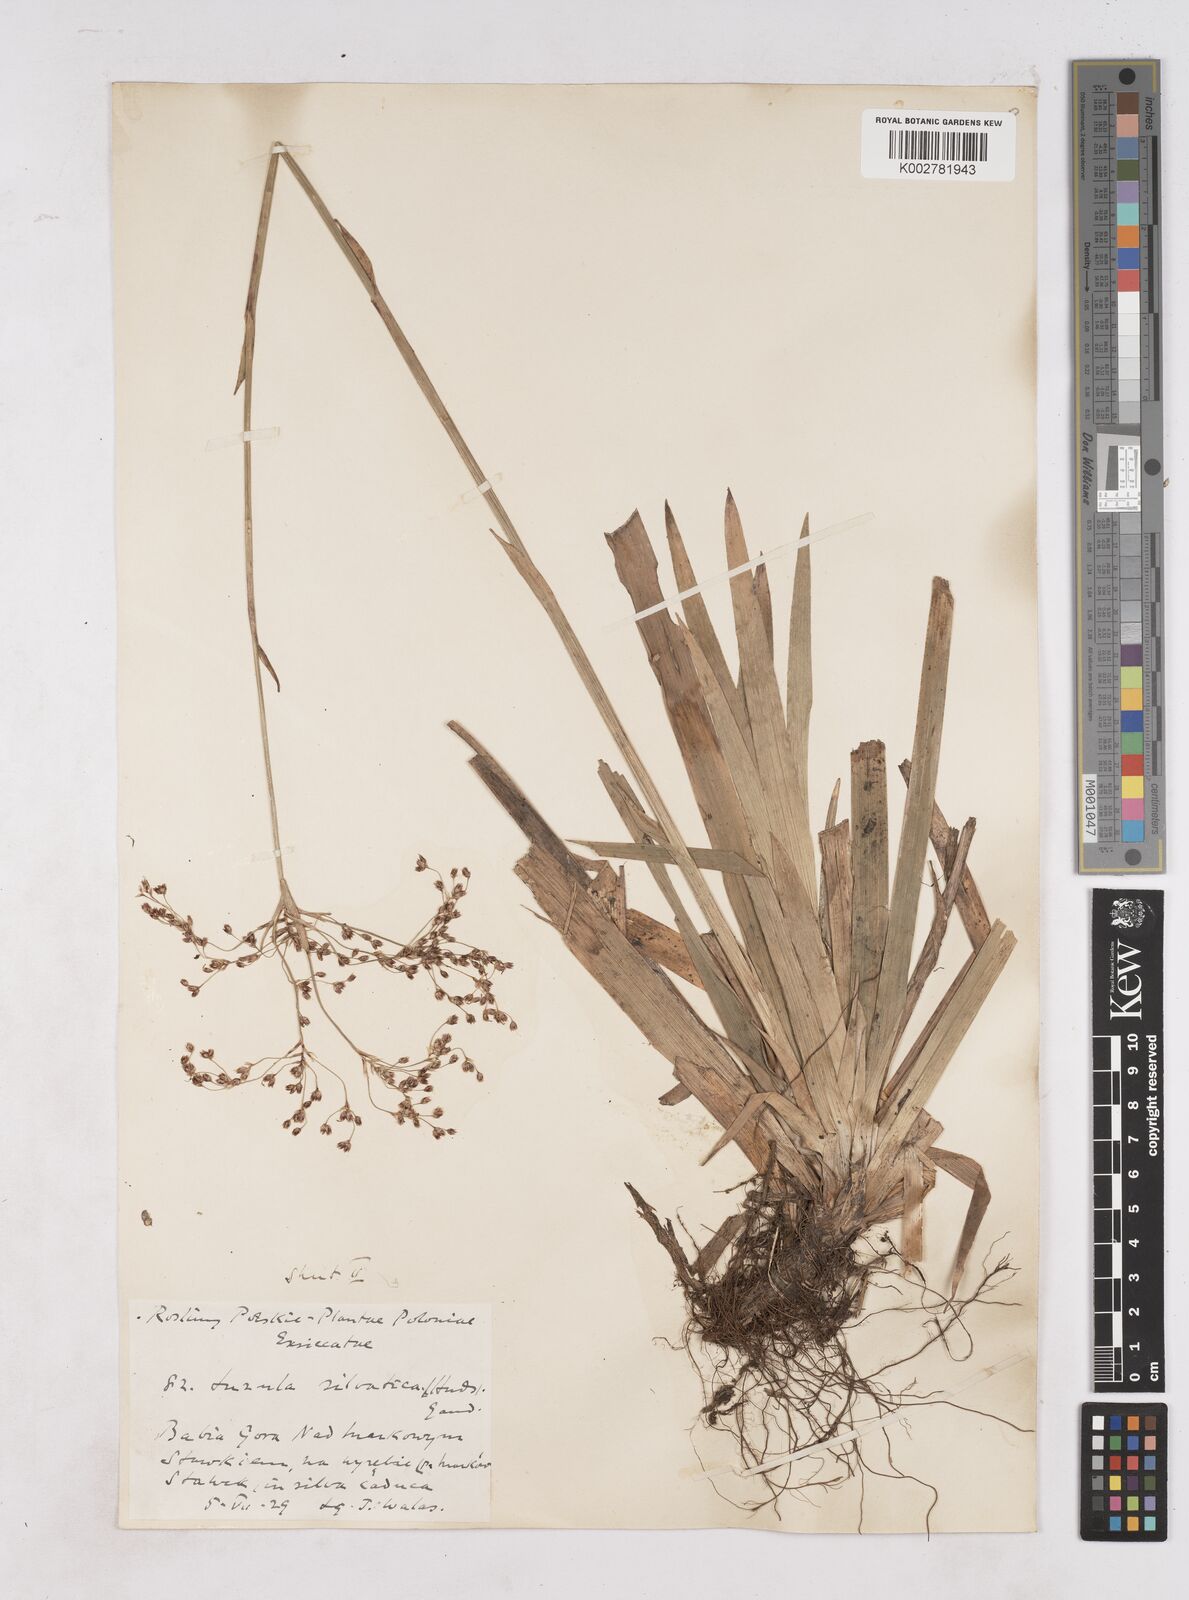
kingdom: Plantae
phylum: Tracheophyta
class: Liliopsida
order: Poales
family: Juncaceae
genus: Luzula
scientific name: Luzula sylvatica
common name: Great wood-rush
